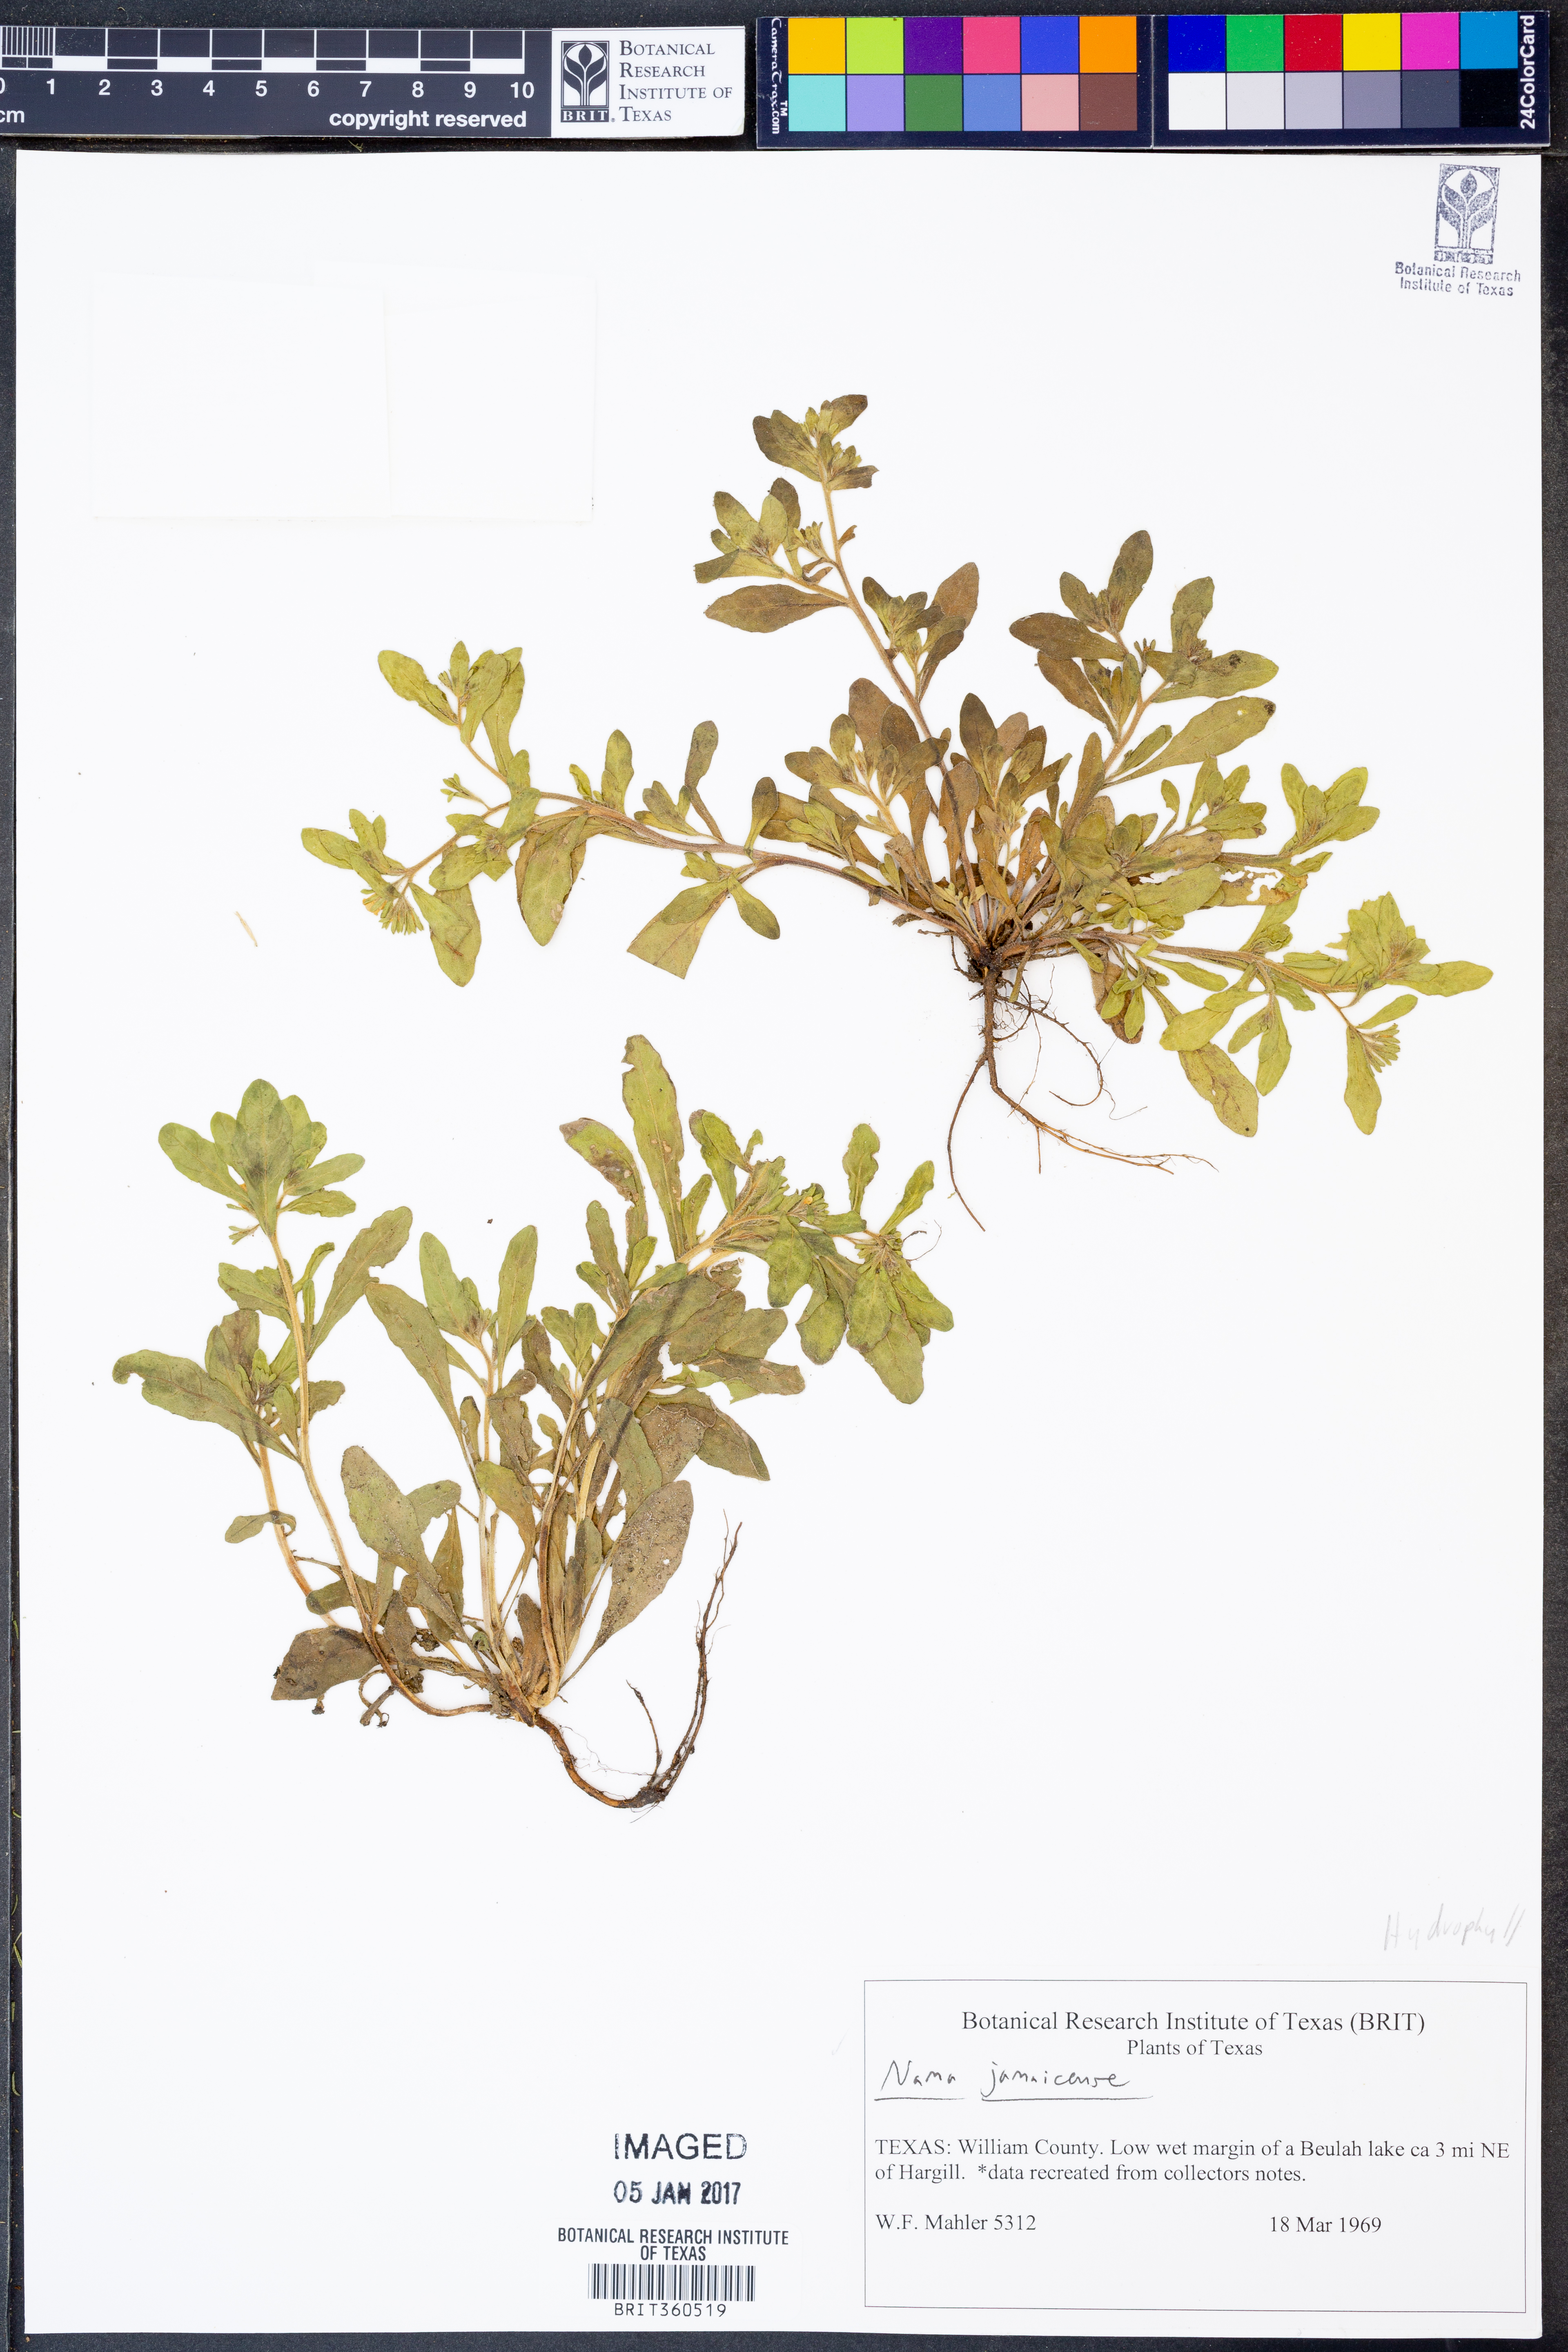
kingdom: Plantae
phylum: Tracheophyta
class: Magnoliopsida
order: Boraginales
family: Namaceae
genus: Nama
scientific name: Nama jamaicense
